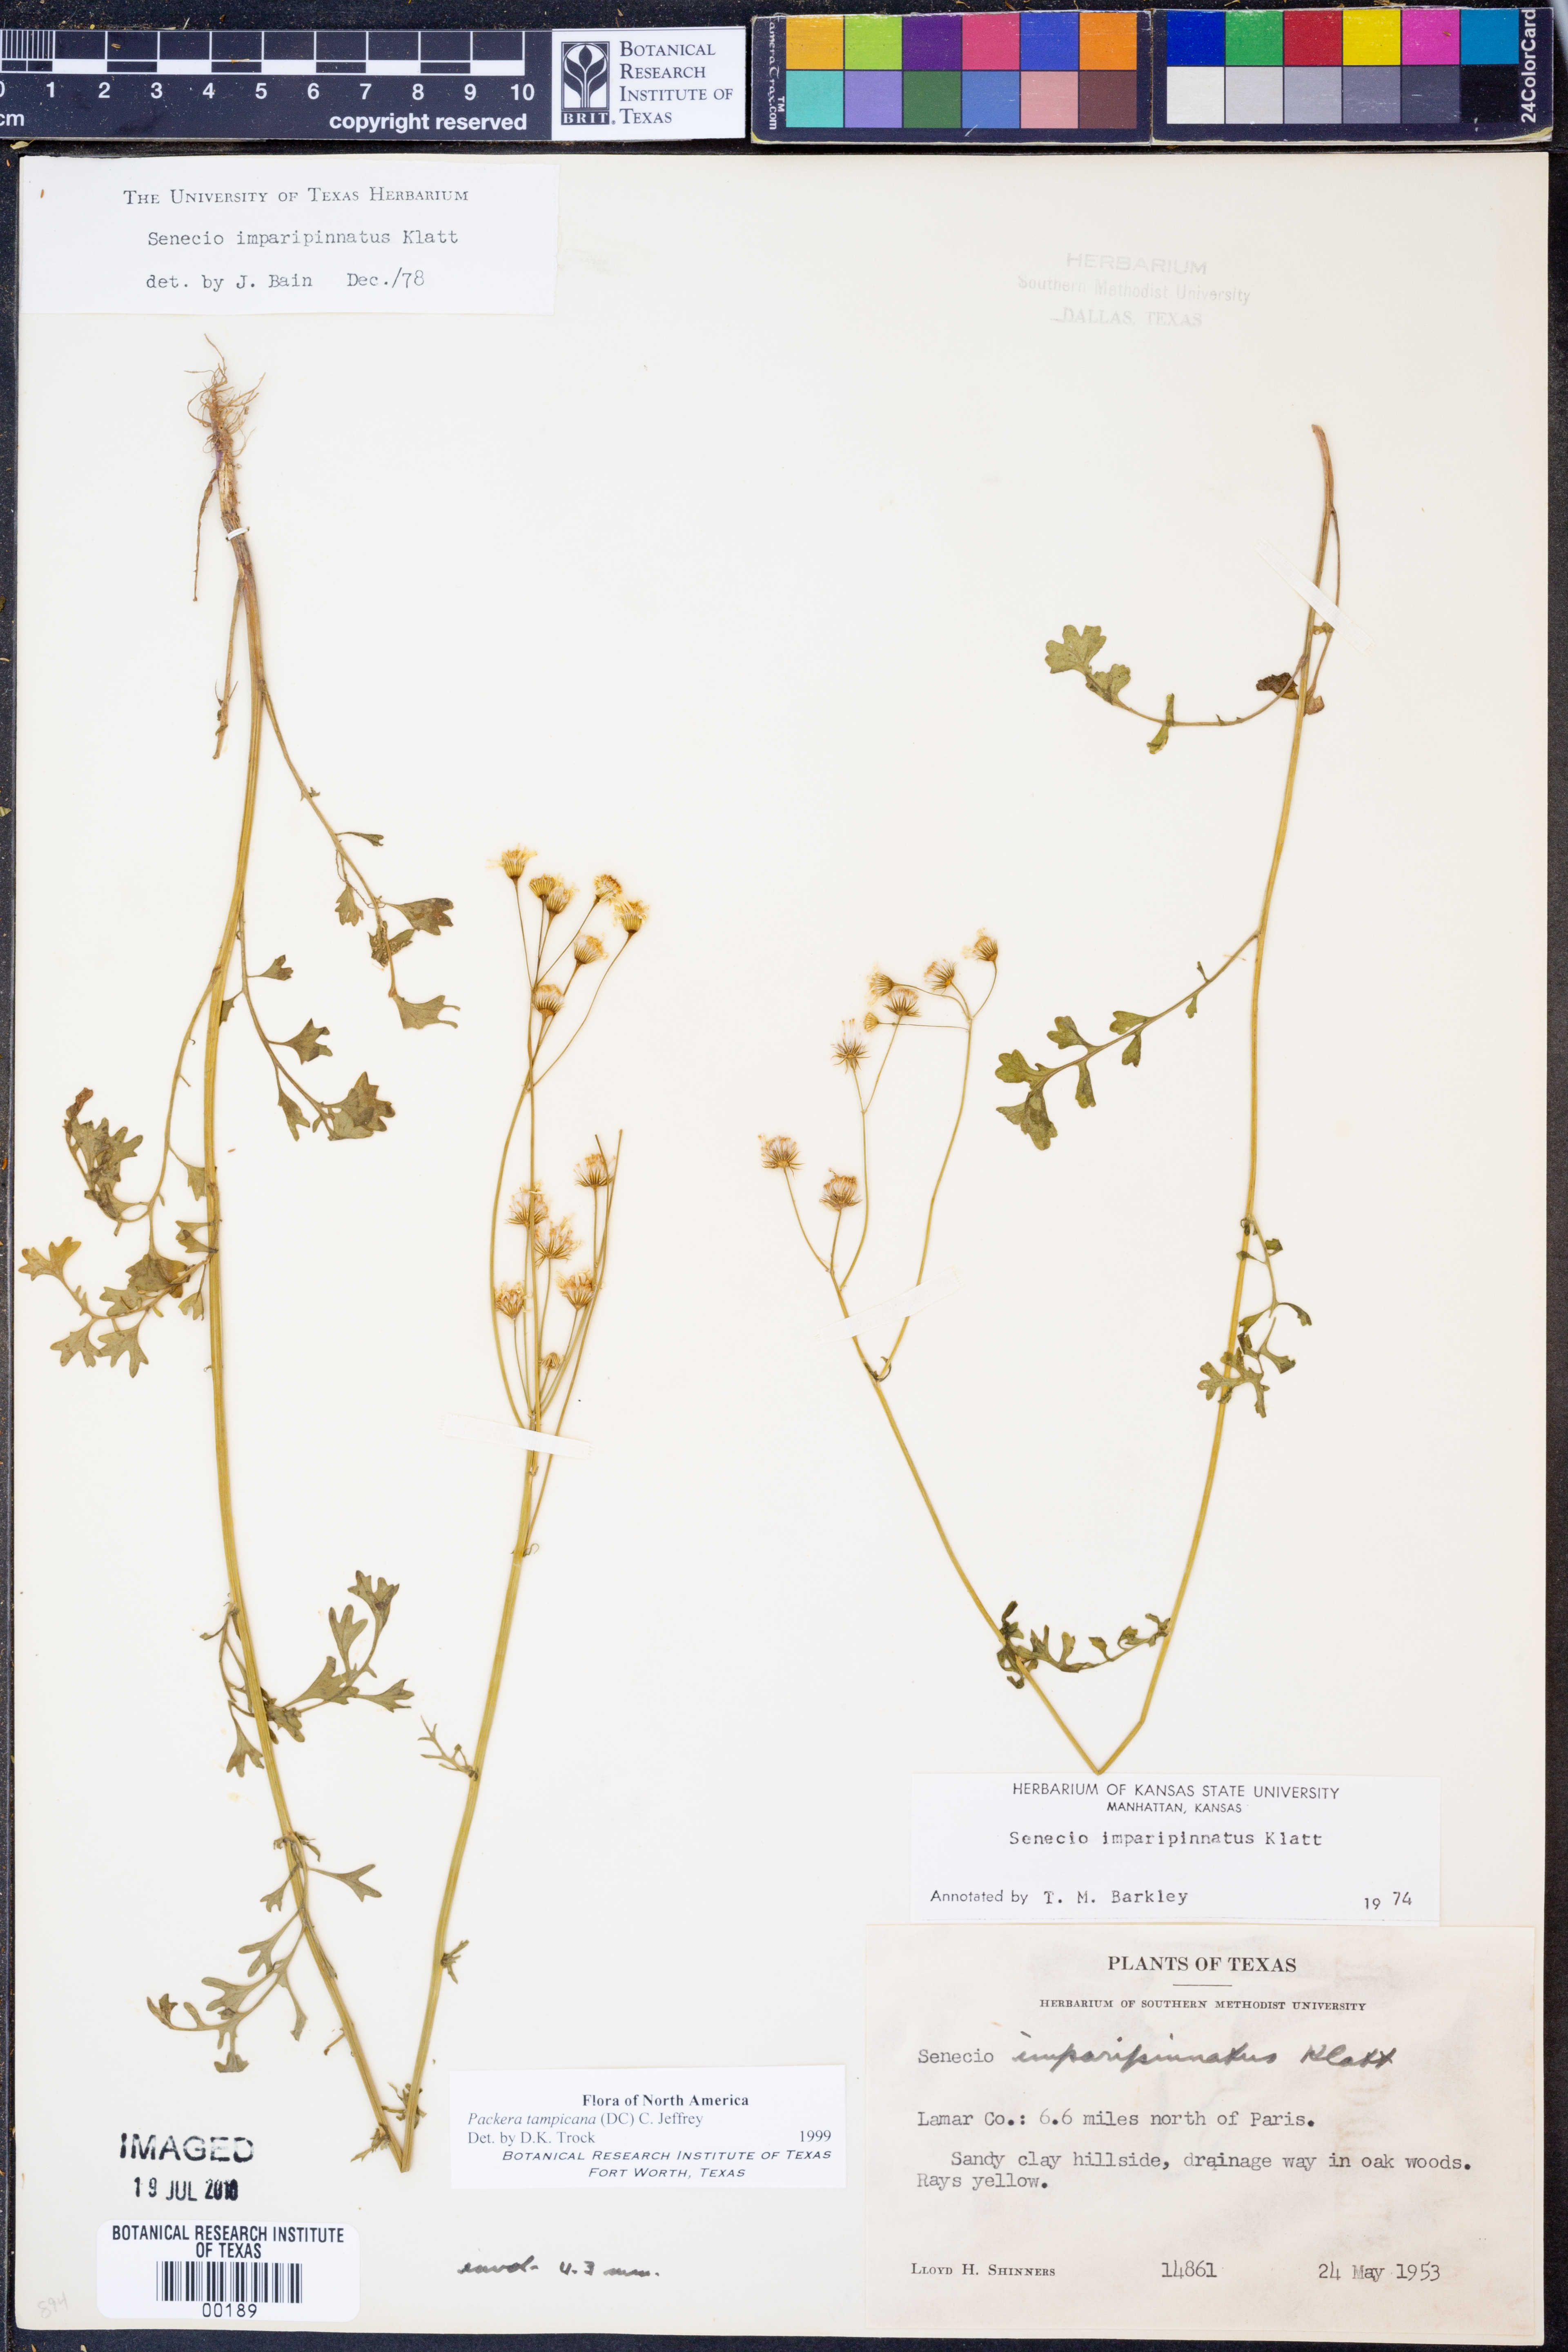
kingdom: Plantae
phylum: Tracheophyta
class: Magnoliopsida
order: Asterales
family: Asteraceae
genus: Packera
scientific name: Packera tampicana
